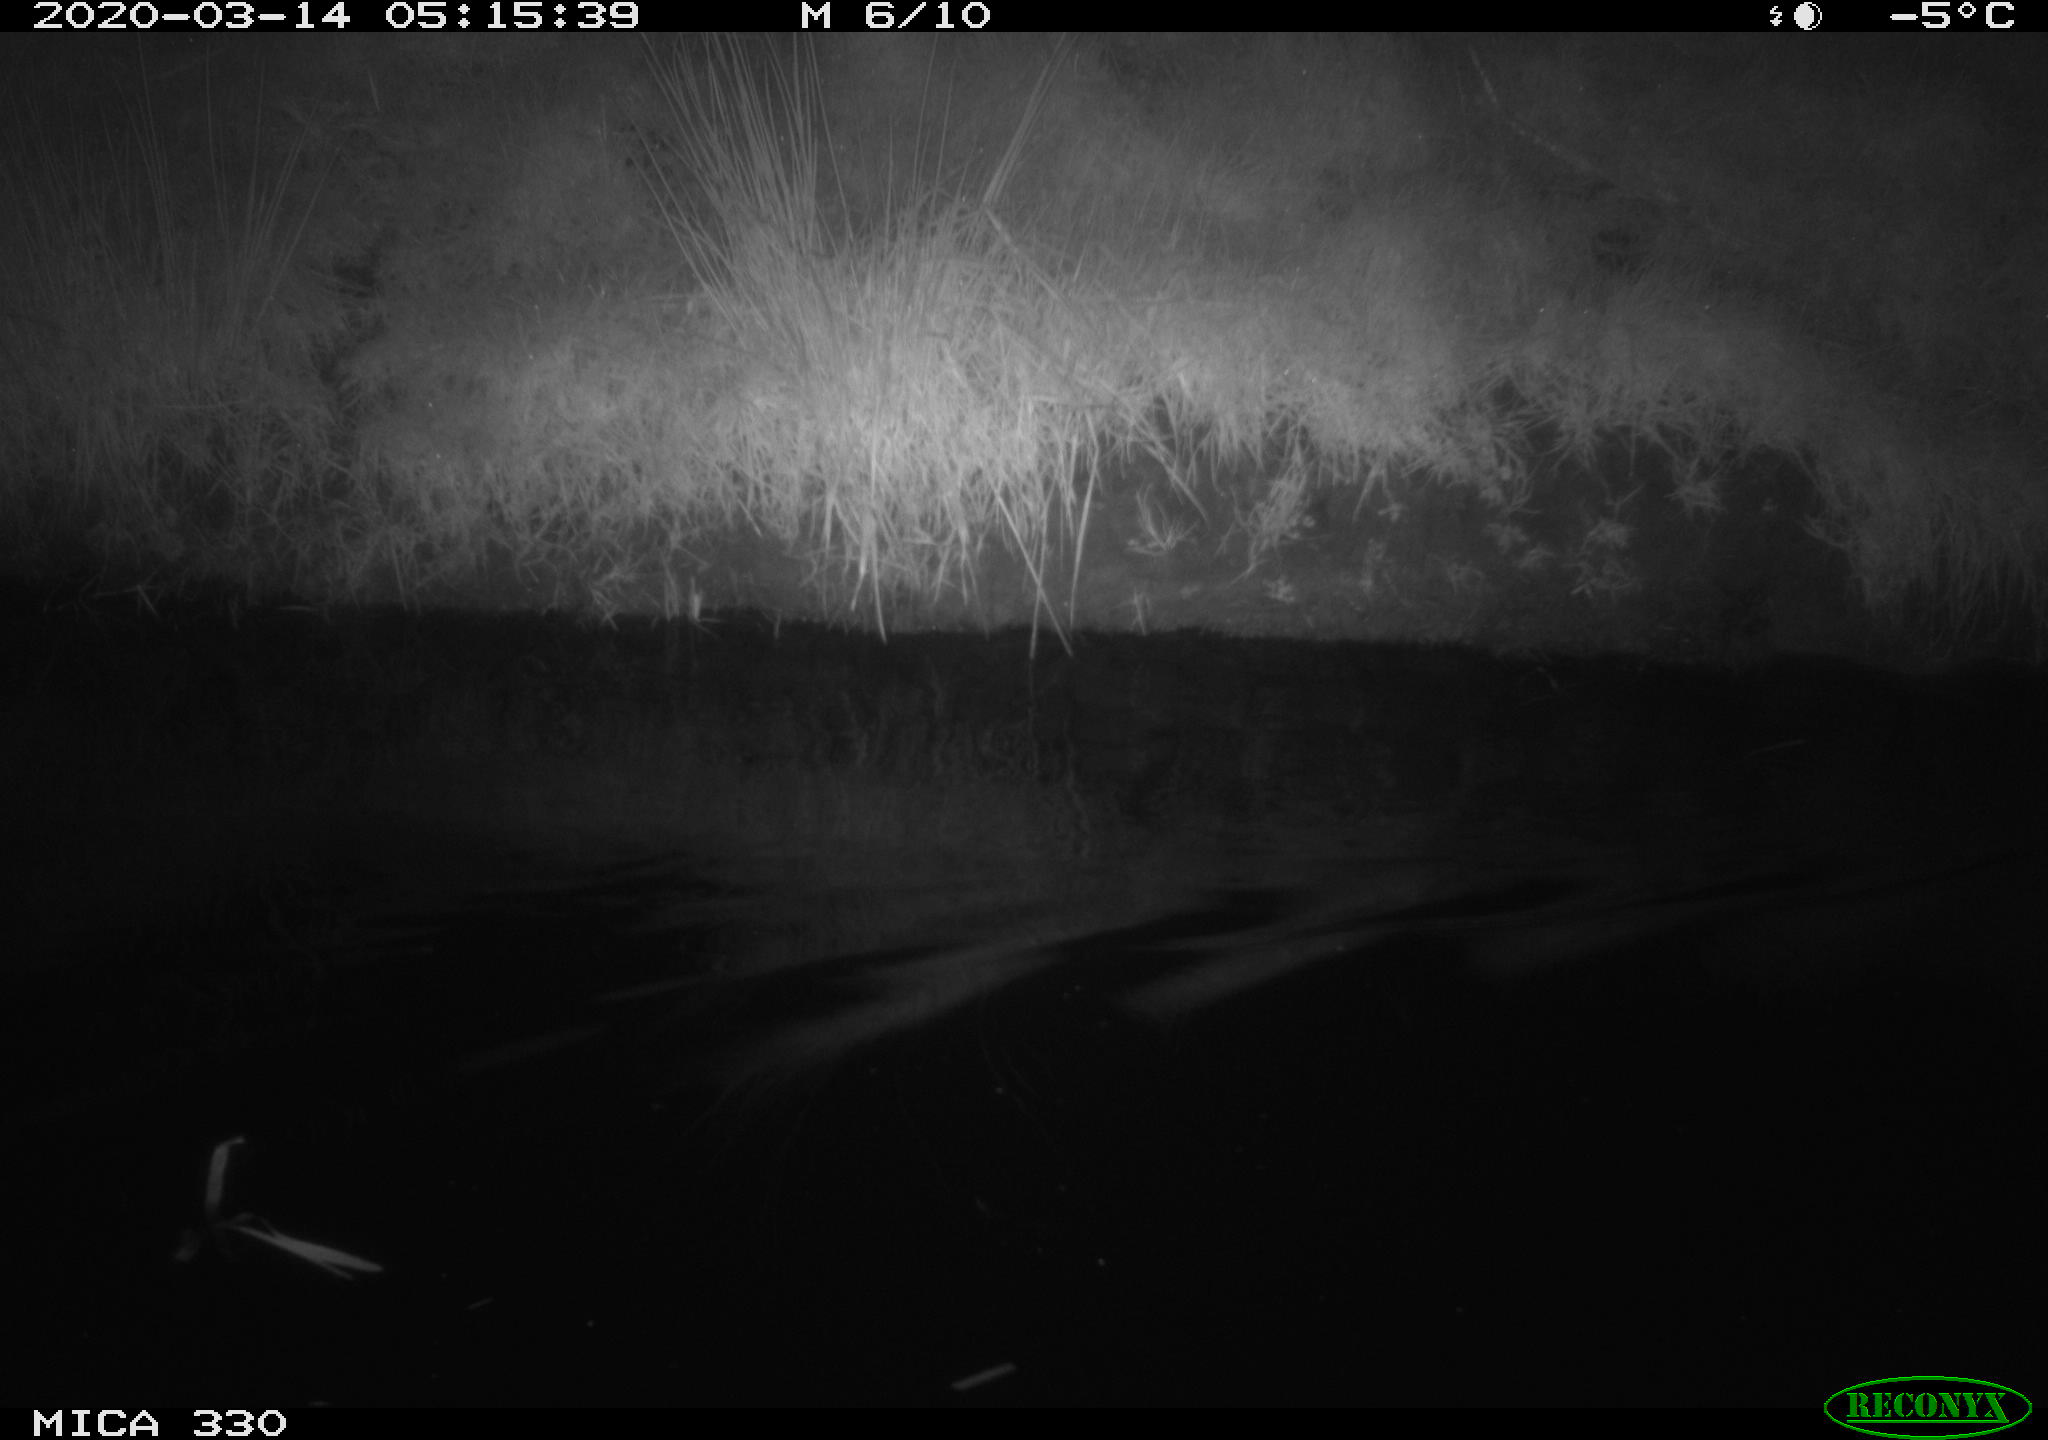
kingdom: Animalia
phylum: Chordata
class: Aves
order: Anseriformes
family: Anatidae
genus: Anas
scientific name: Anas platyrhynchos
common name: Mallard
